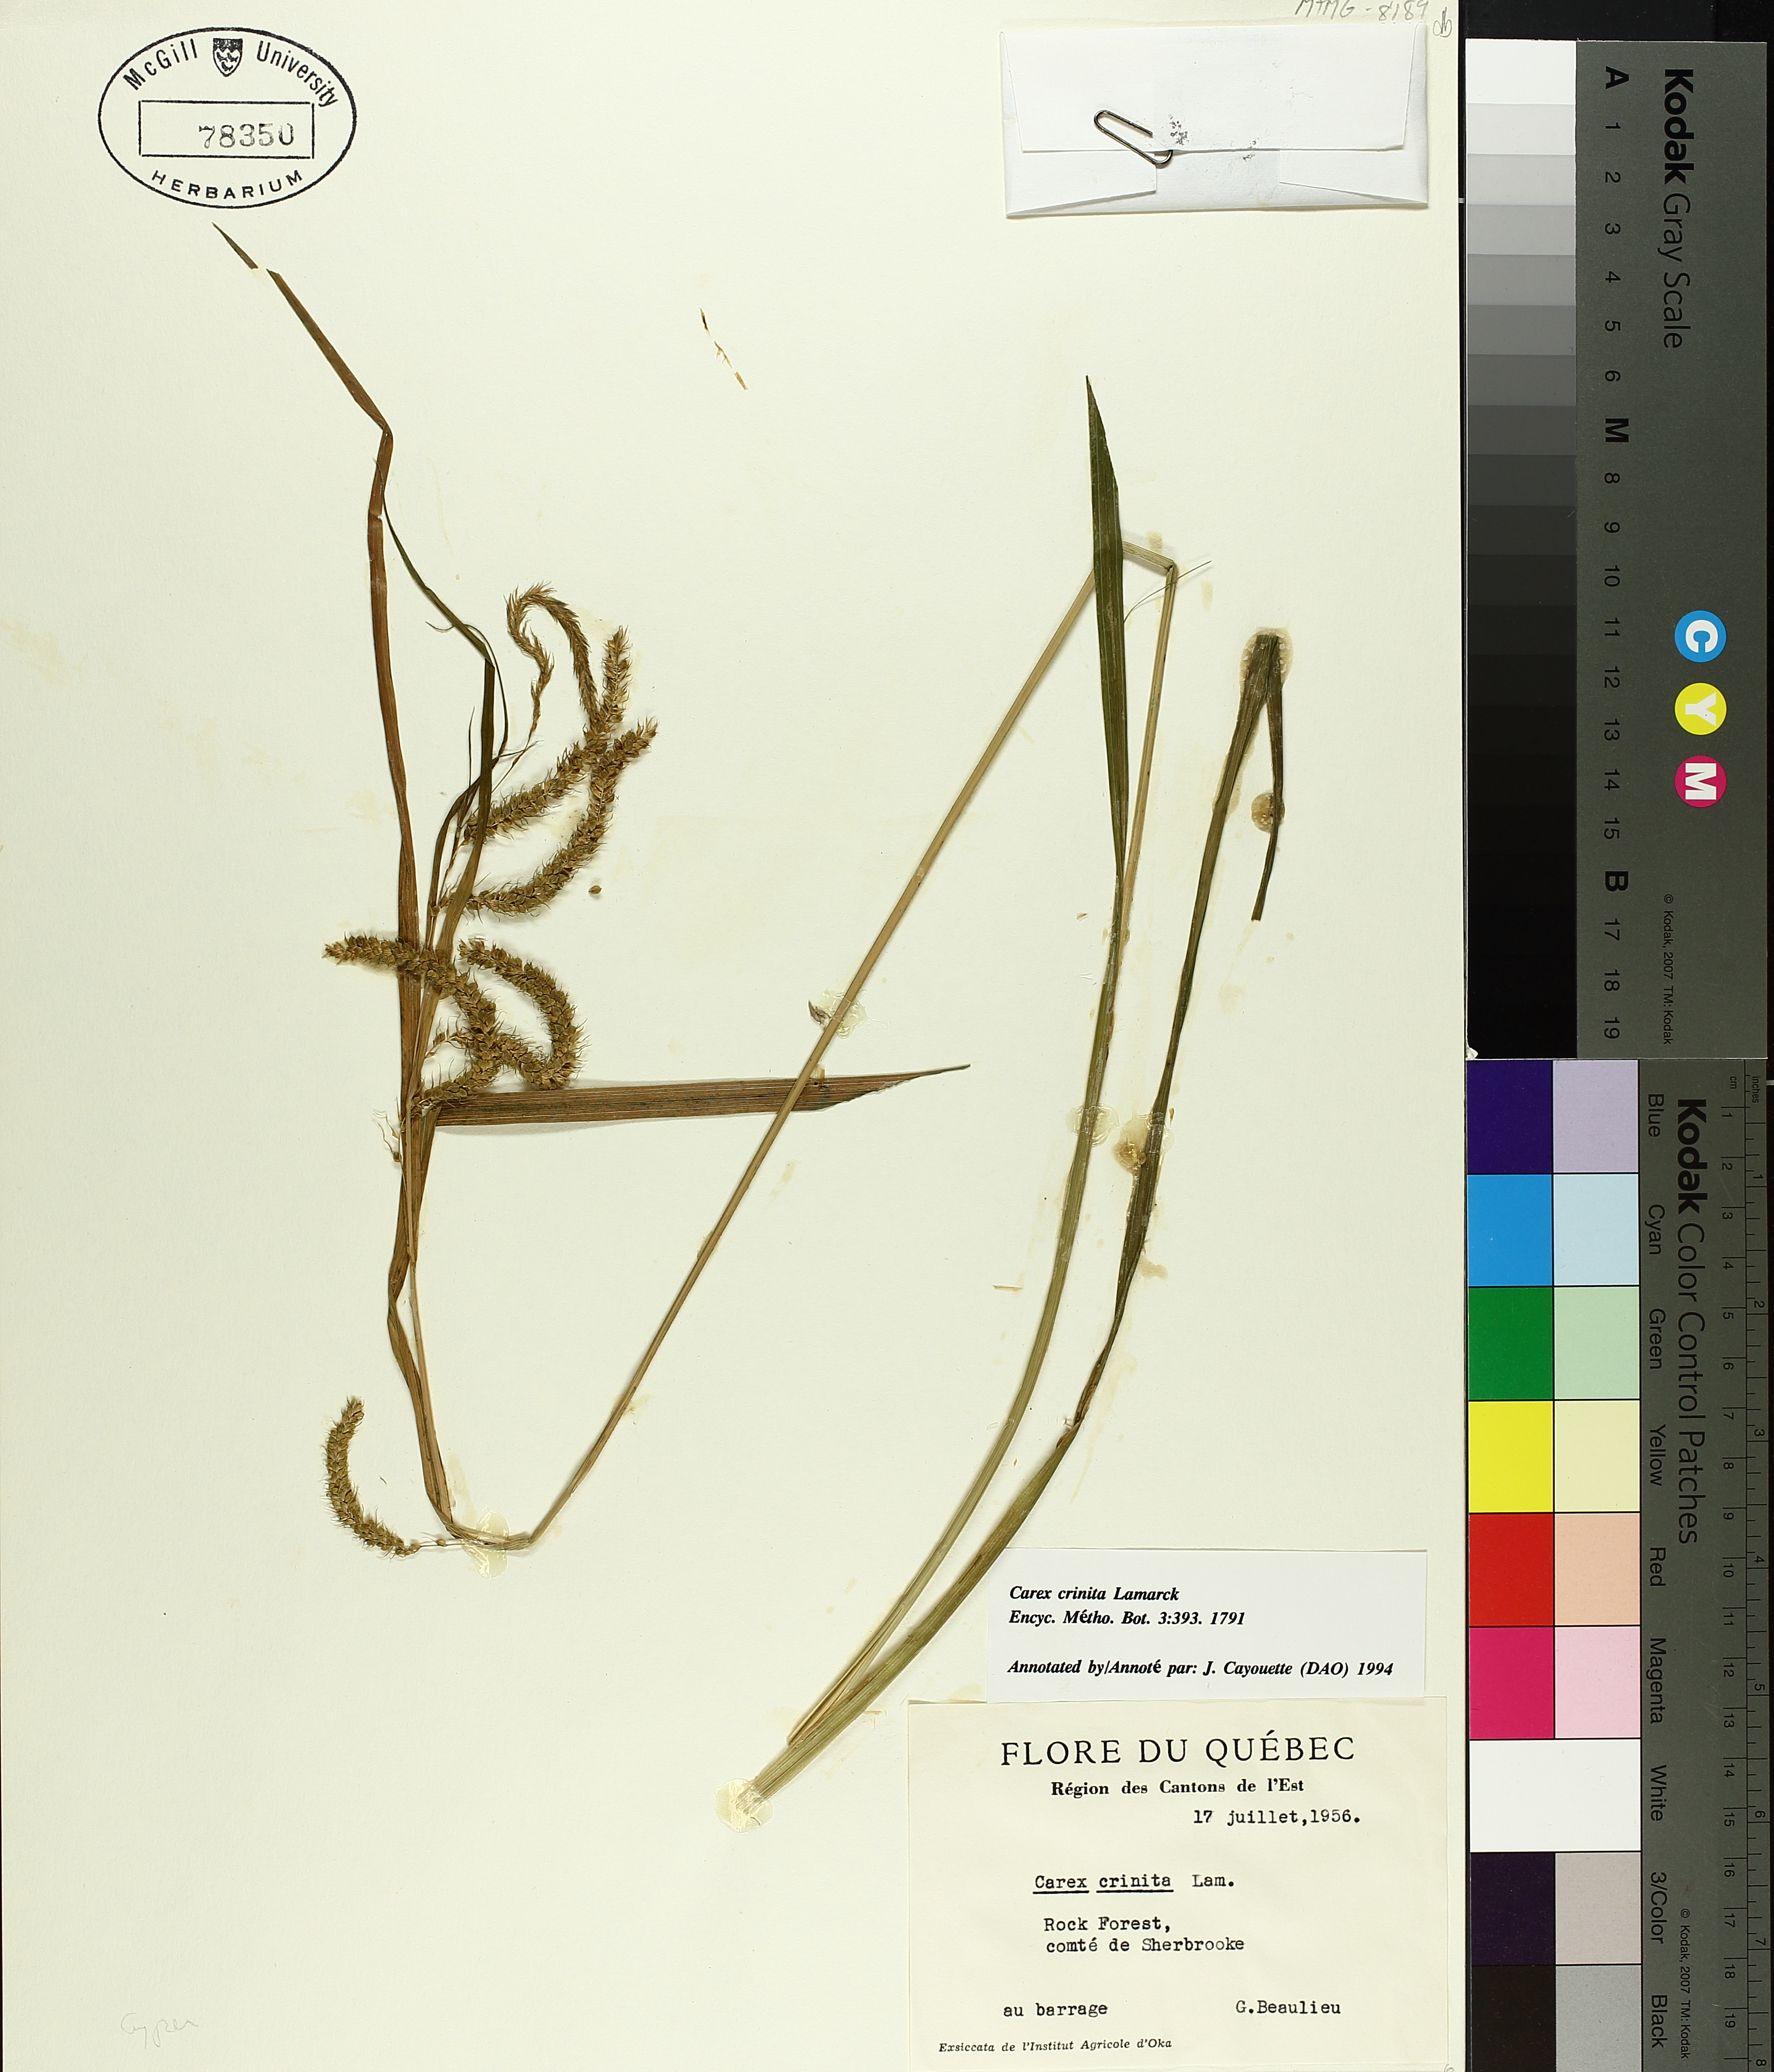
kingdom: Plantae
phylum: Tracheophyta
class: Liliopsida
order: Poales
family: Cyperaceae
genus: Carex
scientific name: Carex crinita
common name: Fringed sedge
